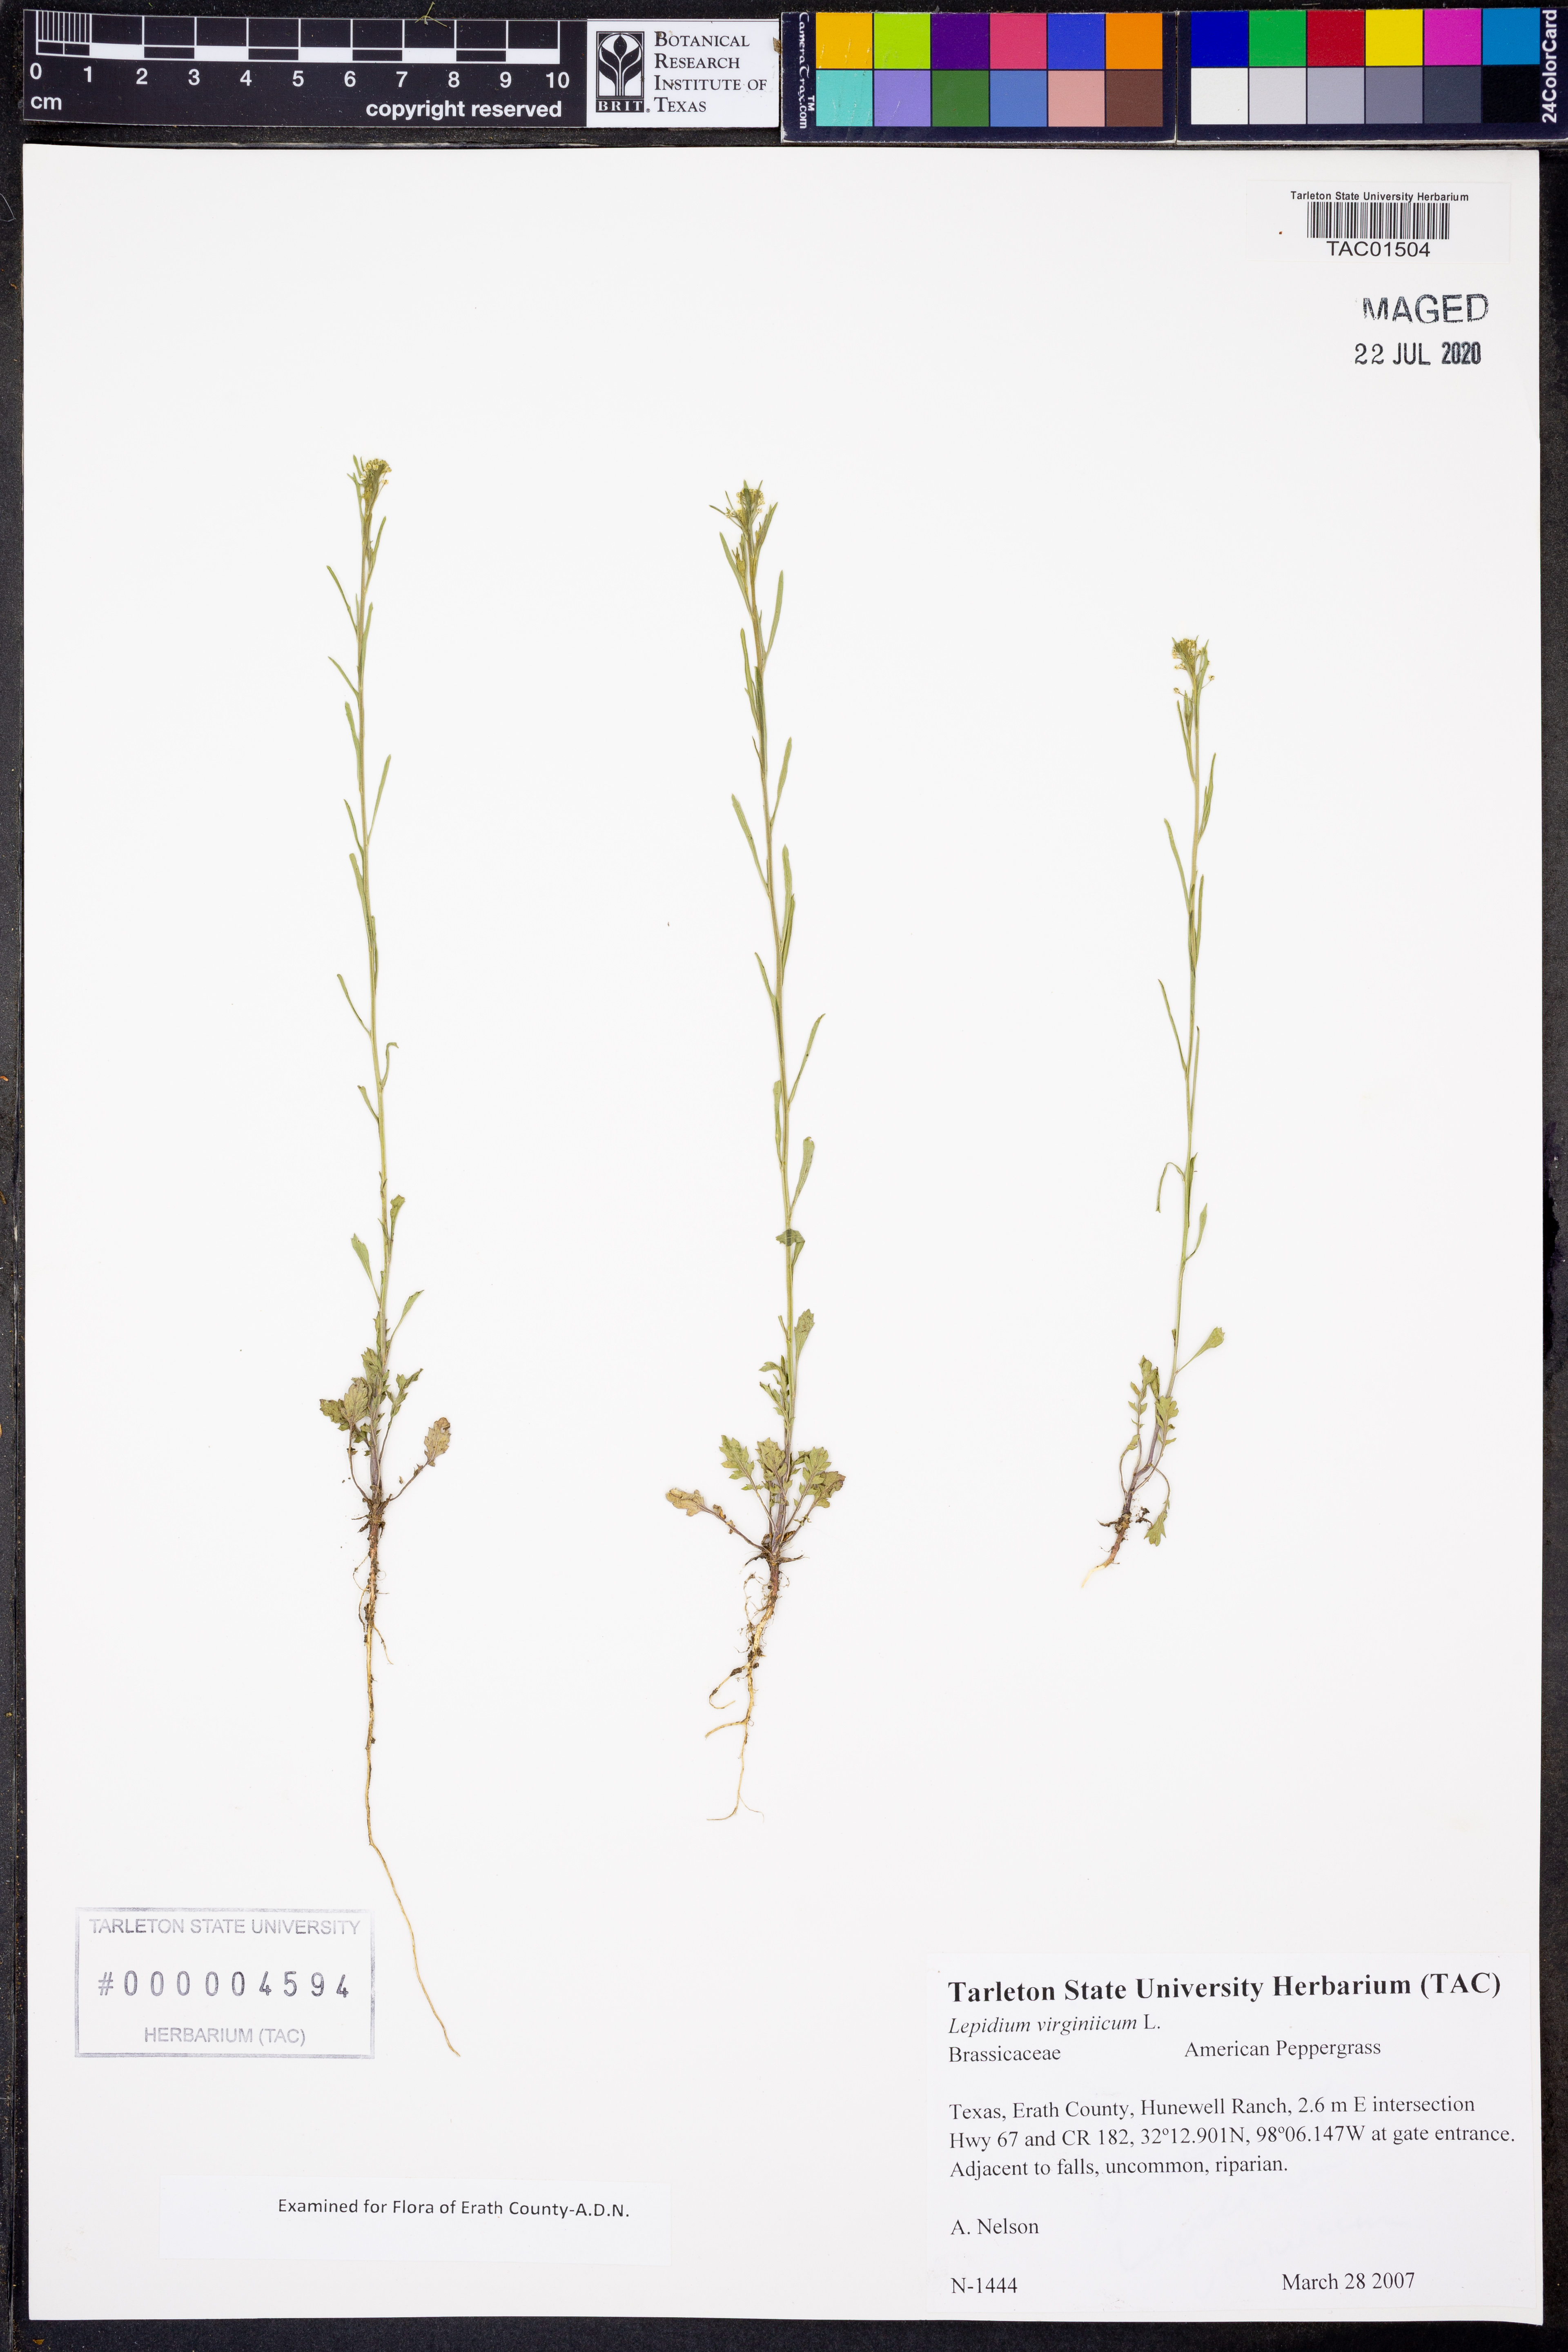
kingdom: Plantae
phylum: Tracheophyta
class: Magnoliopsida
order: Brassicales
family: Brassicaceae
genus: Lepidium
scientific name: Lepidium virginicum
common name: Least pepperwort
